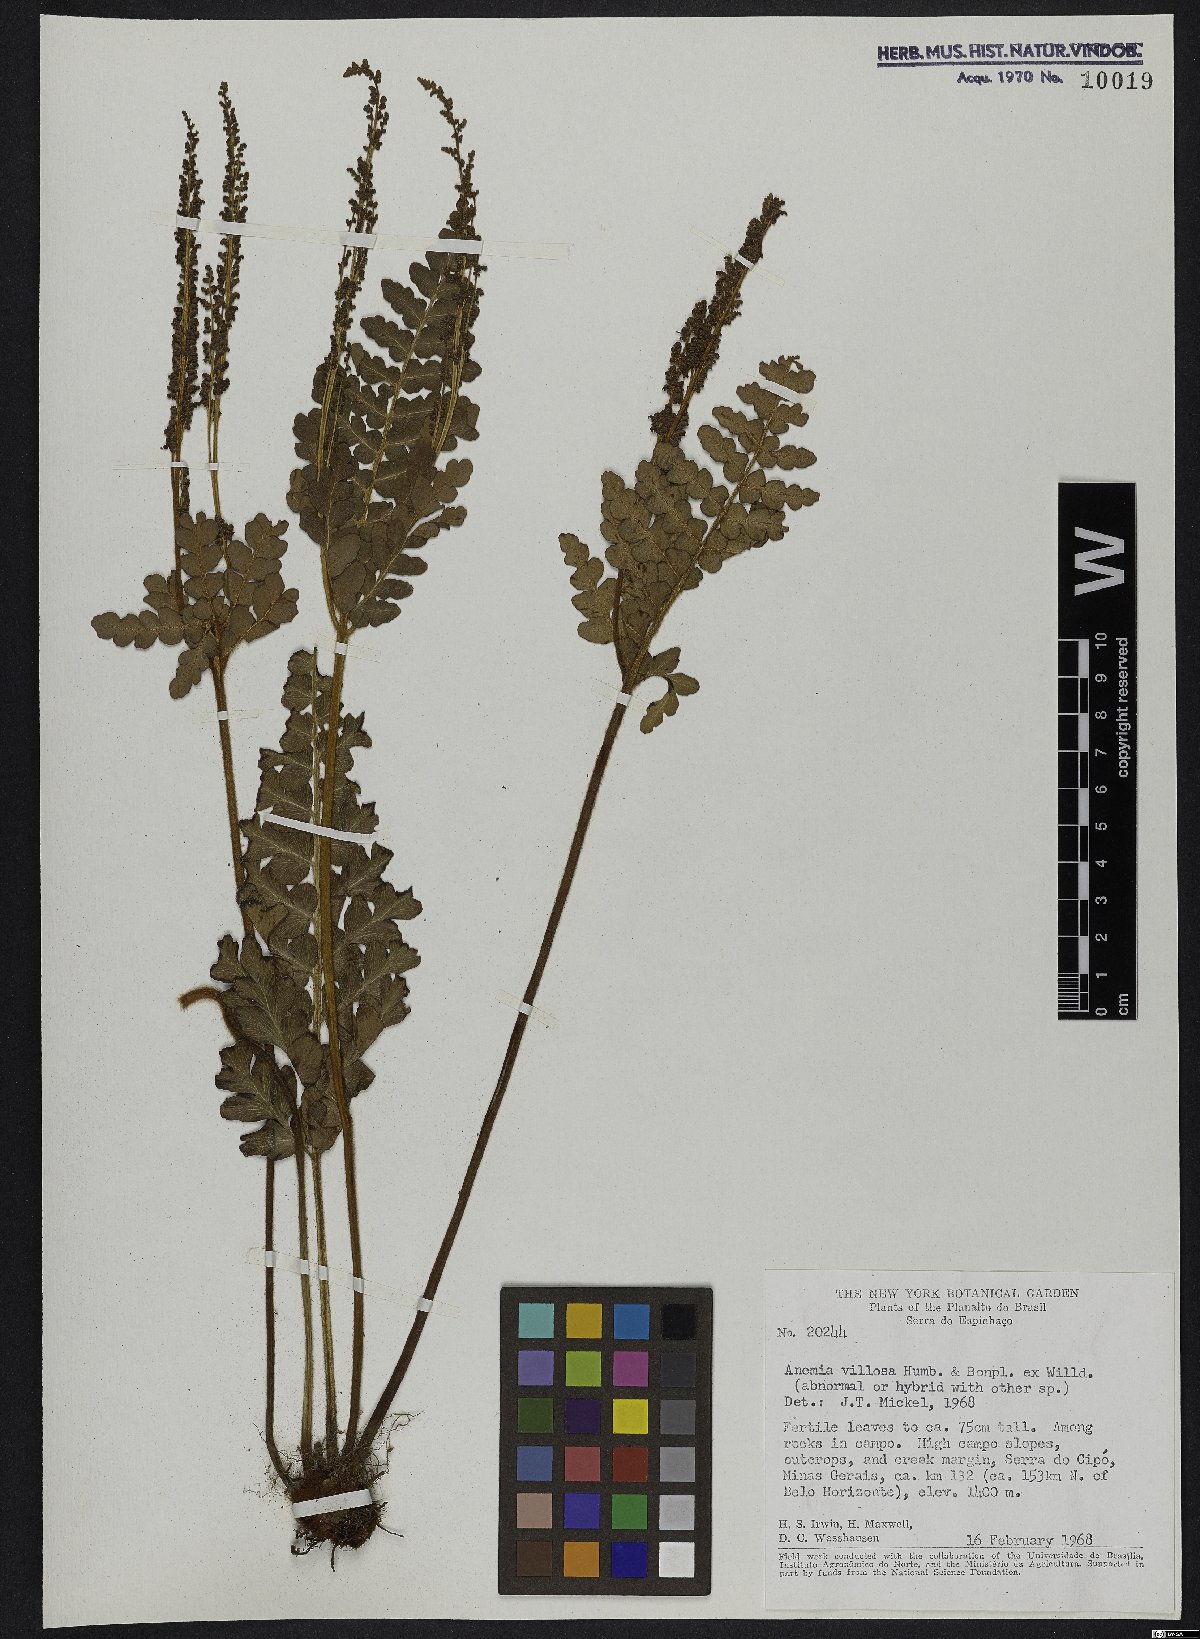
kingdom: Plantae
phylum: Tracheophyta
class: Polypodiopsida
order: Schizaeales
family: Anemiaceae
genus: Anemia
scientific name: Anemia villosa
